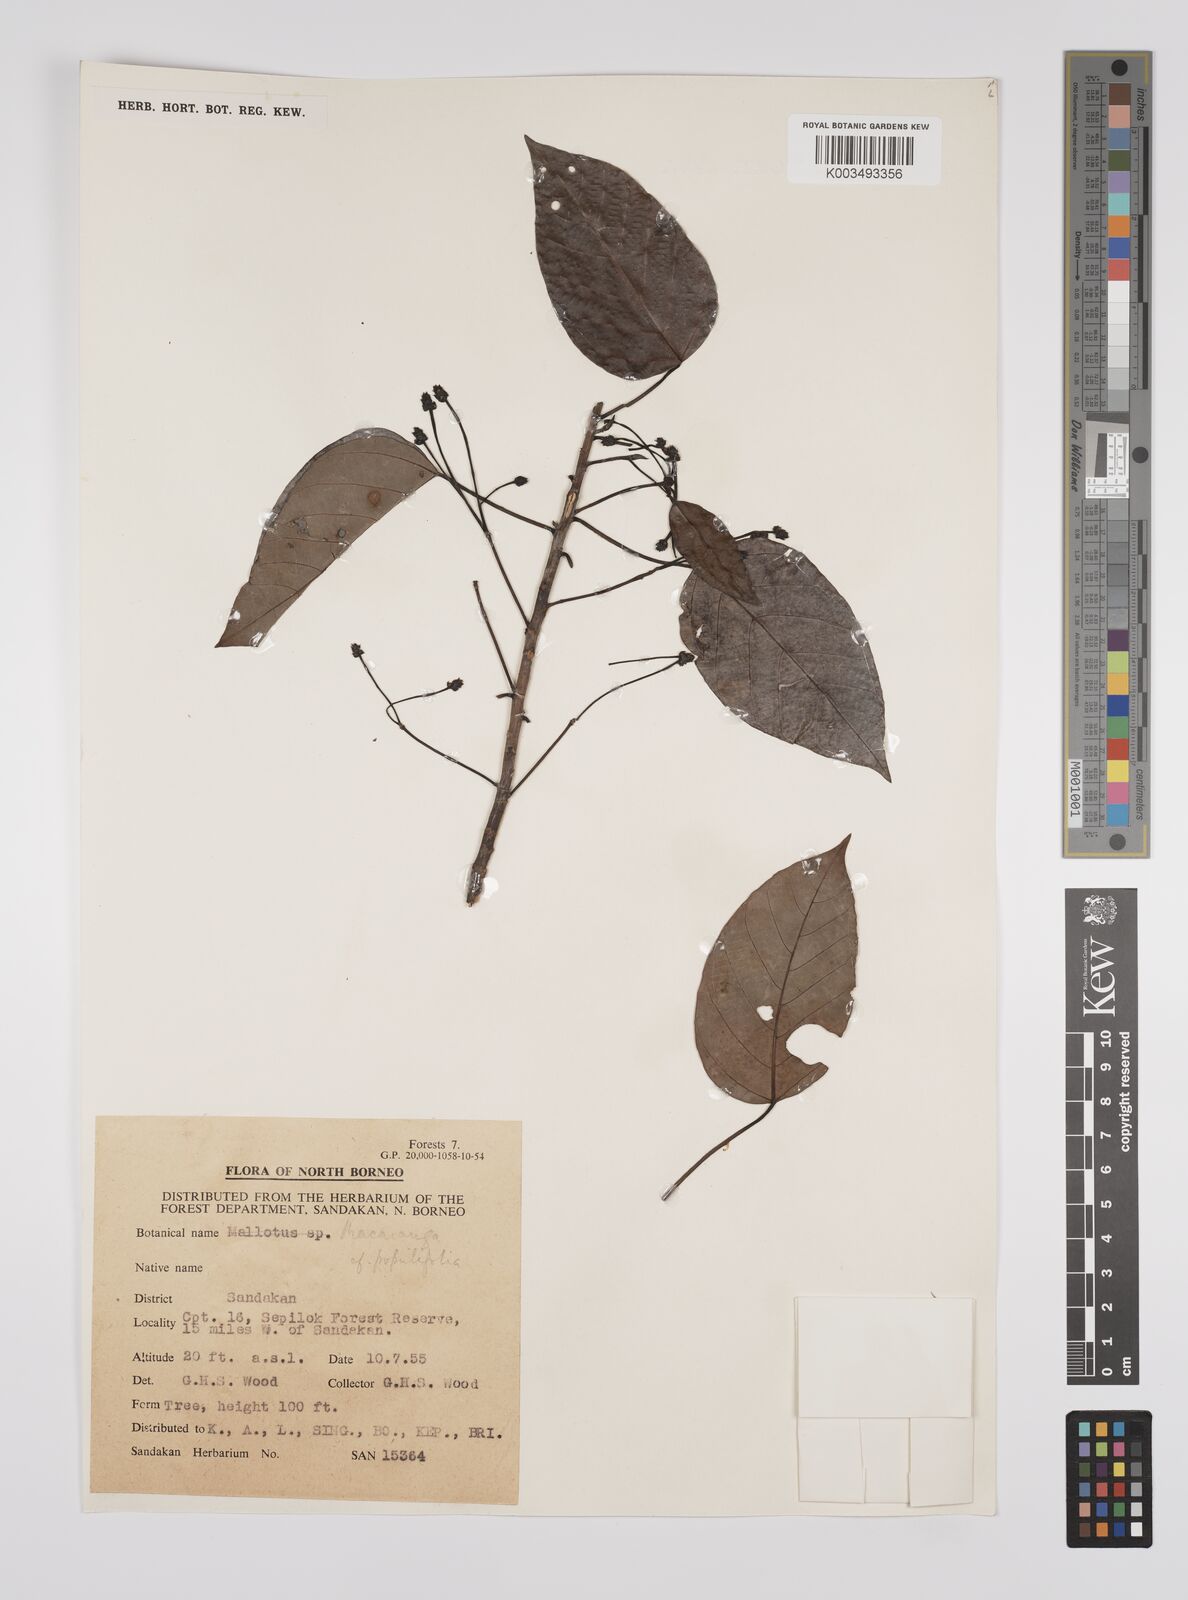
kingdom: Plantae
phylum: Tracheophyta
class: Magnoliopsida
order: Malpighiales
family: Euphorbiaceae
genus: Macaranga
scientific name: Macaranga conifera
